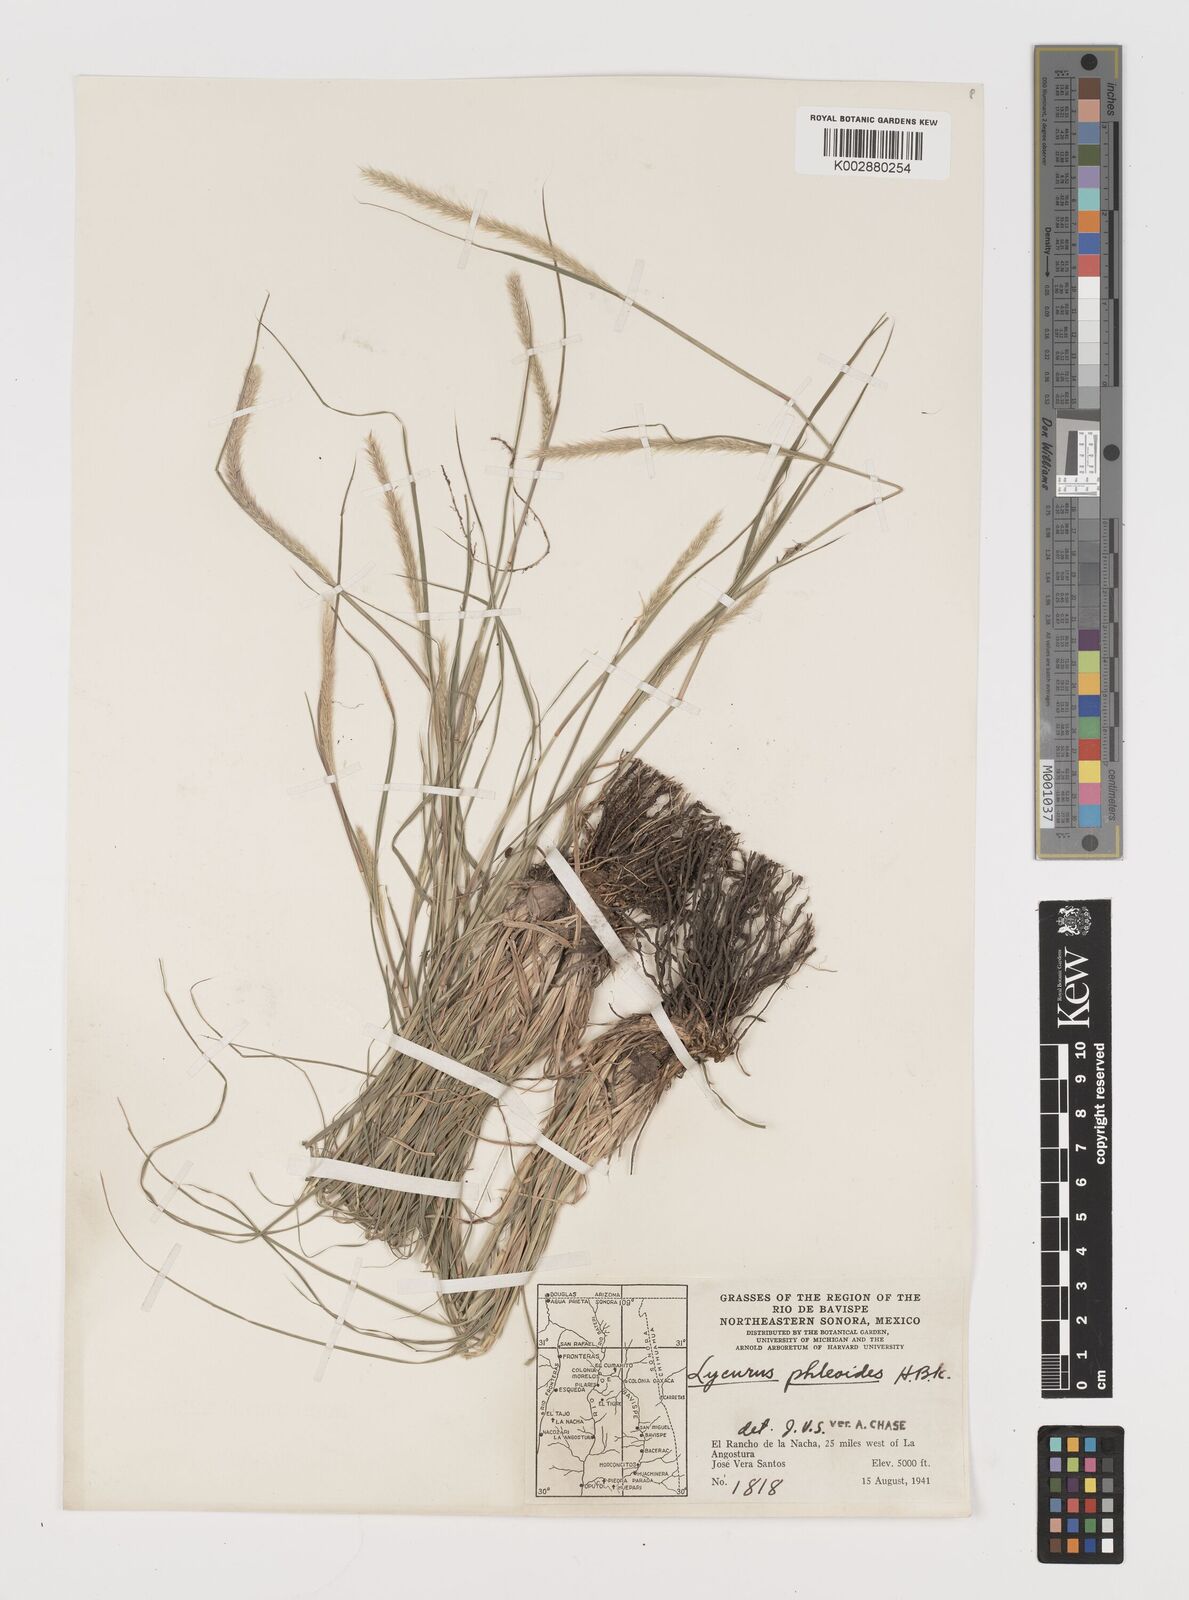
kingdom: Plantae
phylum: Tracheophyta
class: Liliopsida
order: Poales
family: Poaceae
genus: Muhlenbergia
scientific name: Muhlenbergia alopecuroides
